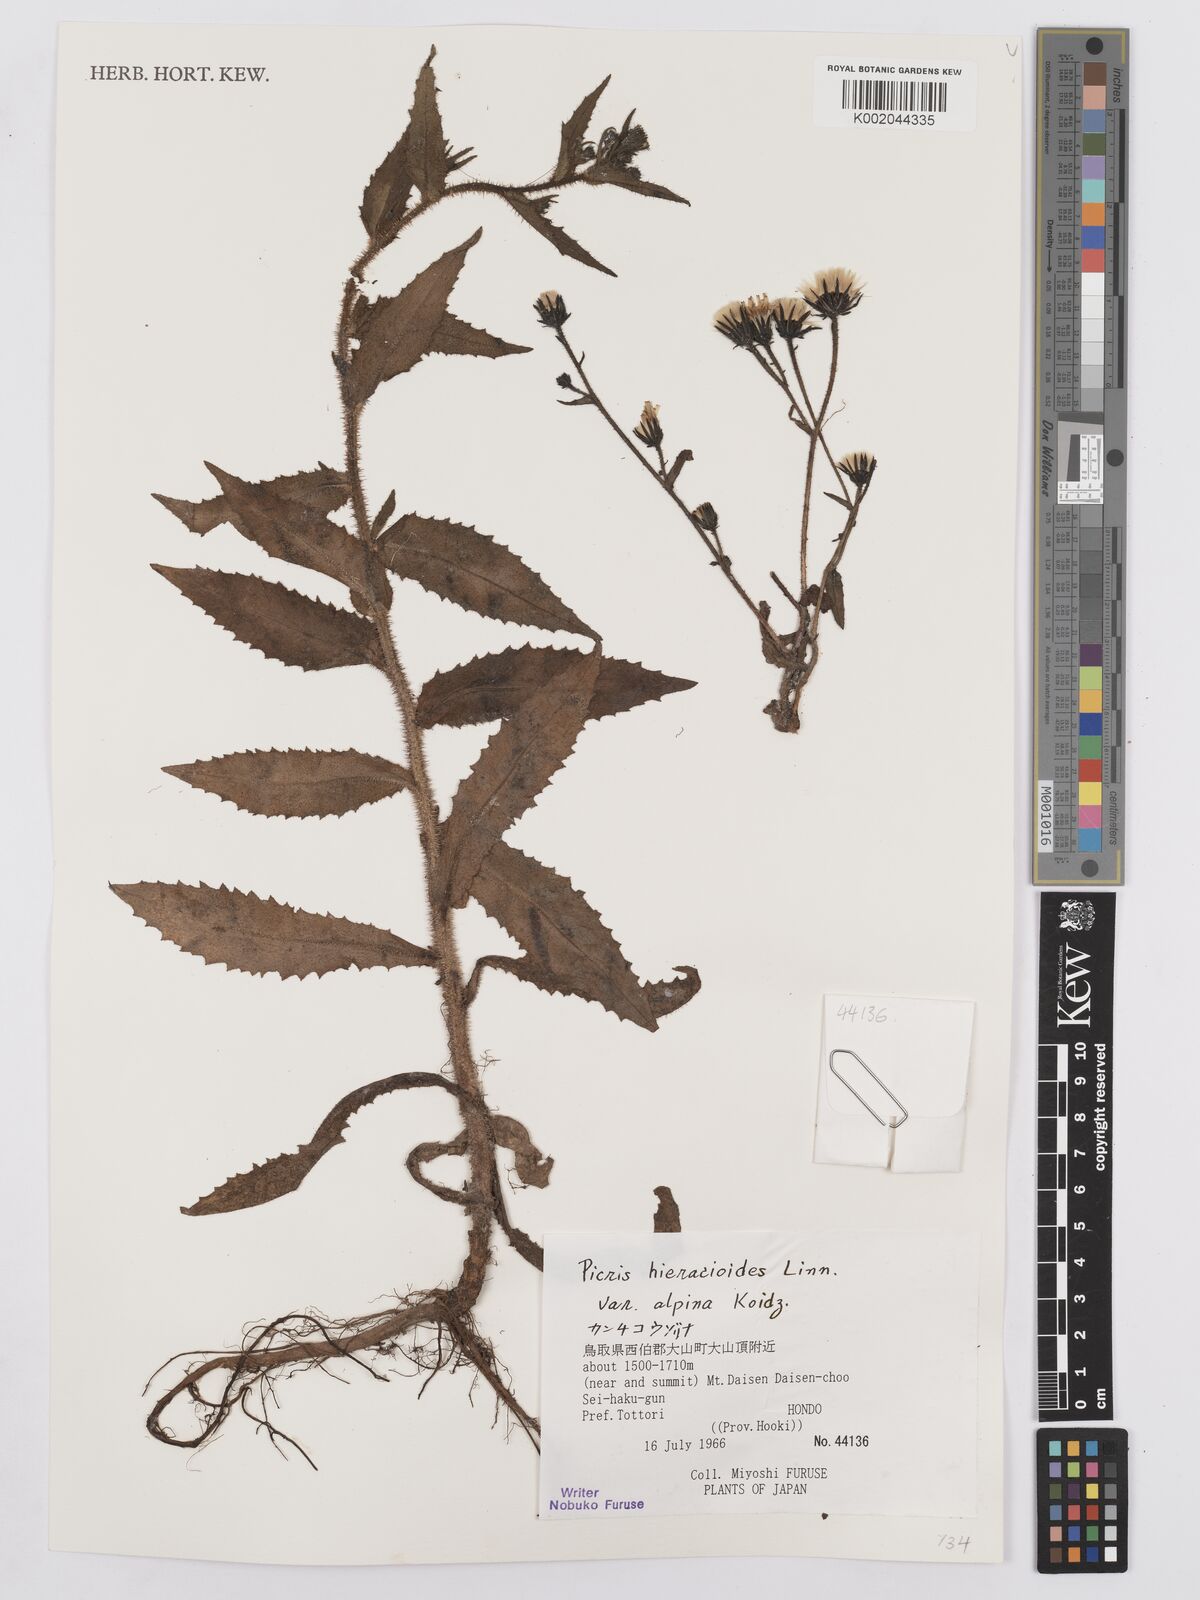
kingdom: Plantae
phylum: Tracheophyta
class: Magnoliopsida
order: Asterales
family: Asteraceae
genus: Picris
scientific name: Picris hieracioides
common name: Hawkweed oxtongue
